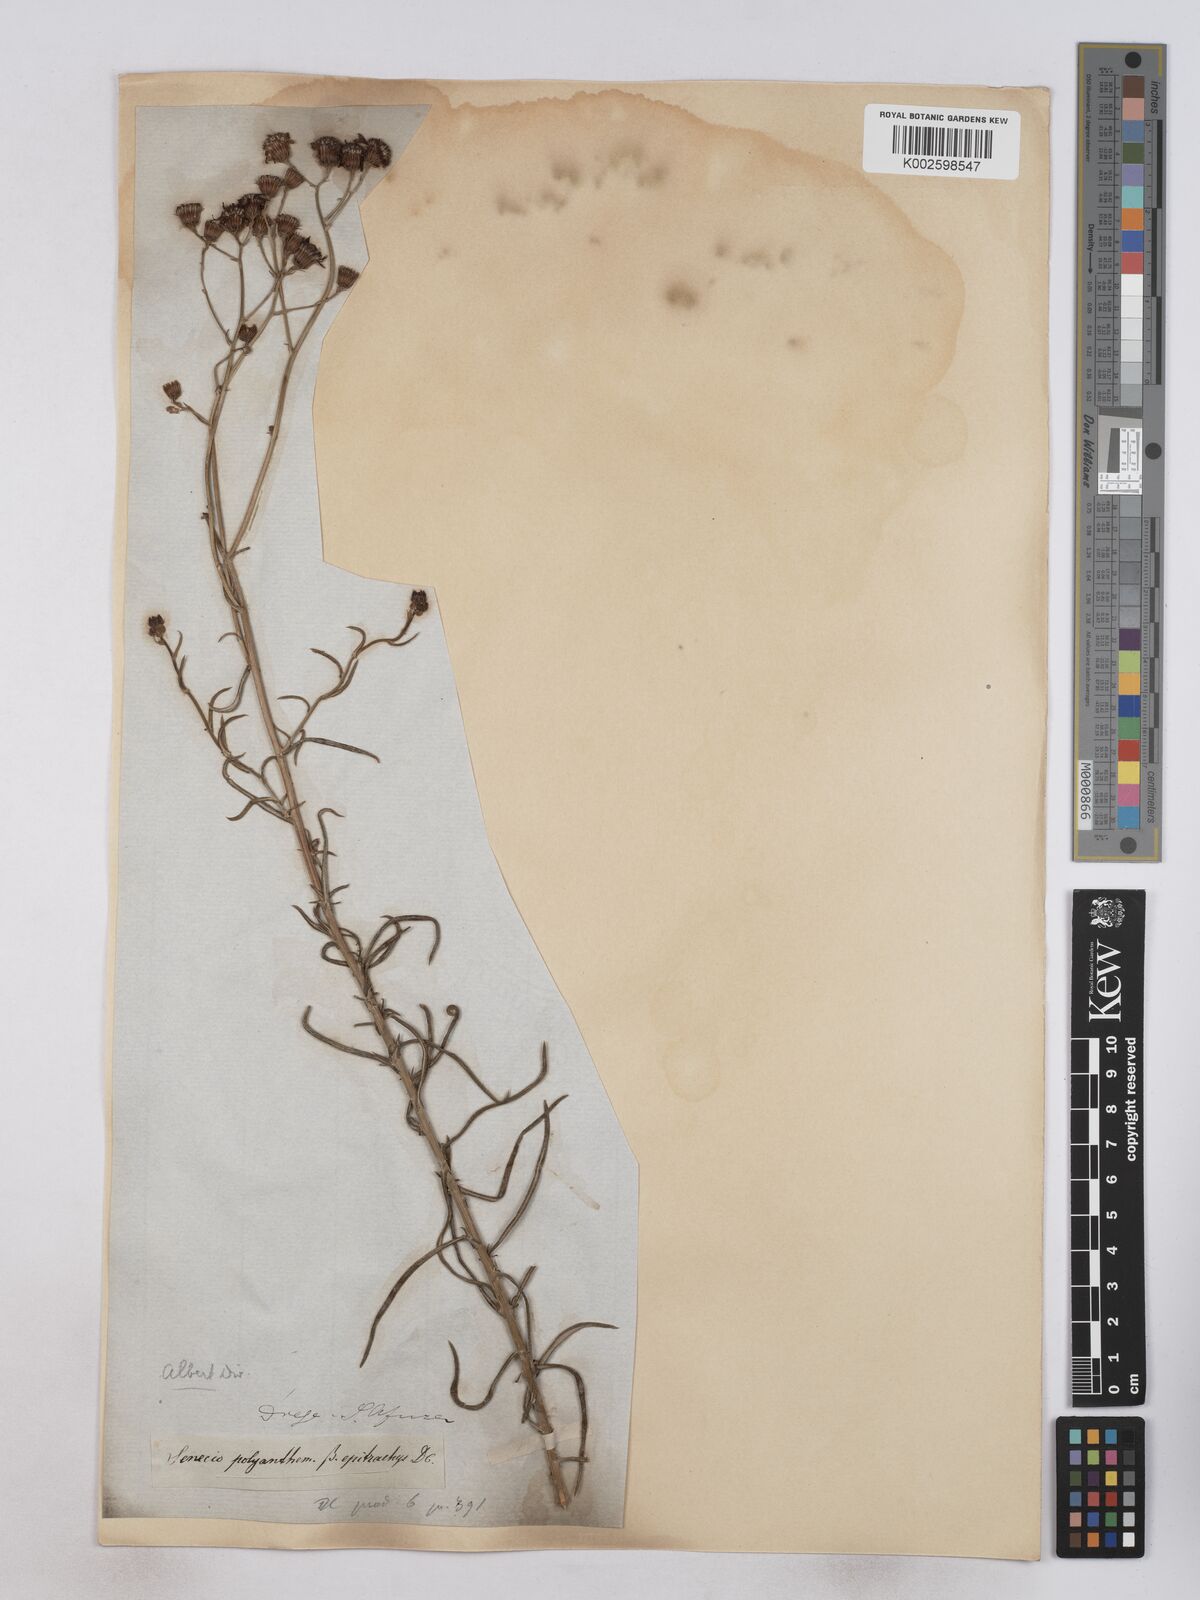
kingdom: Plantae
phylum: Tracheophyta
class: Magnoliopsida
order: Asterales
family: Asteraceae
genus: Senecio
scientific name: Senecio juniperinus
